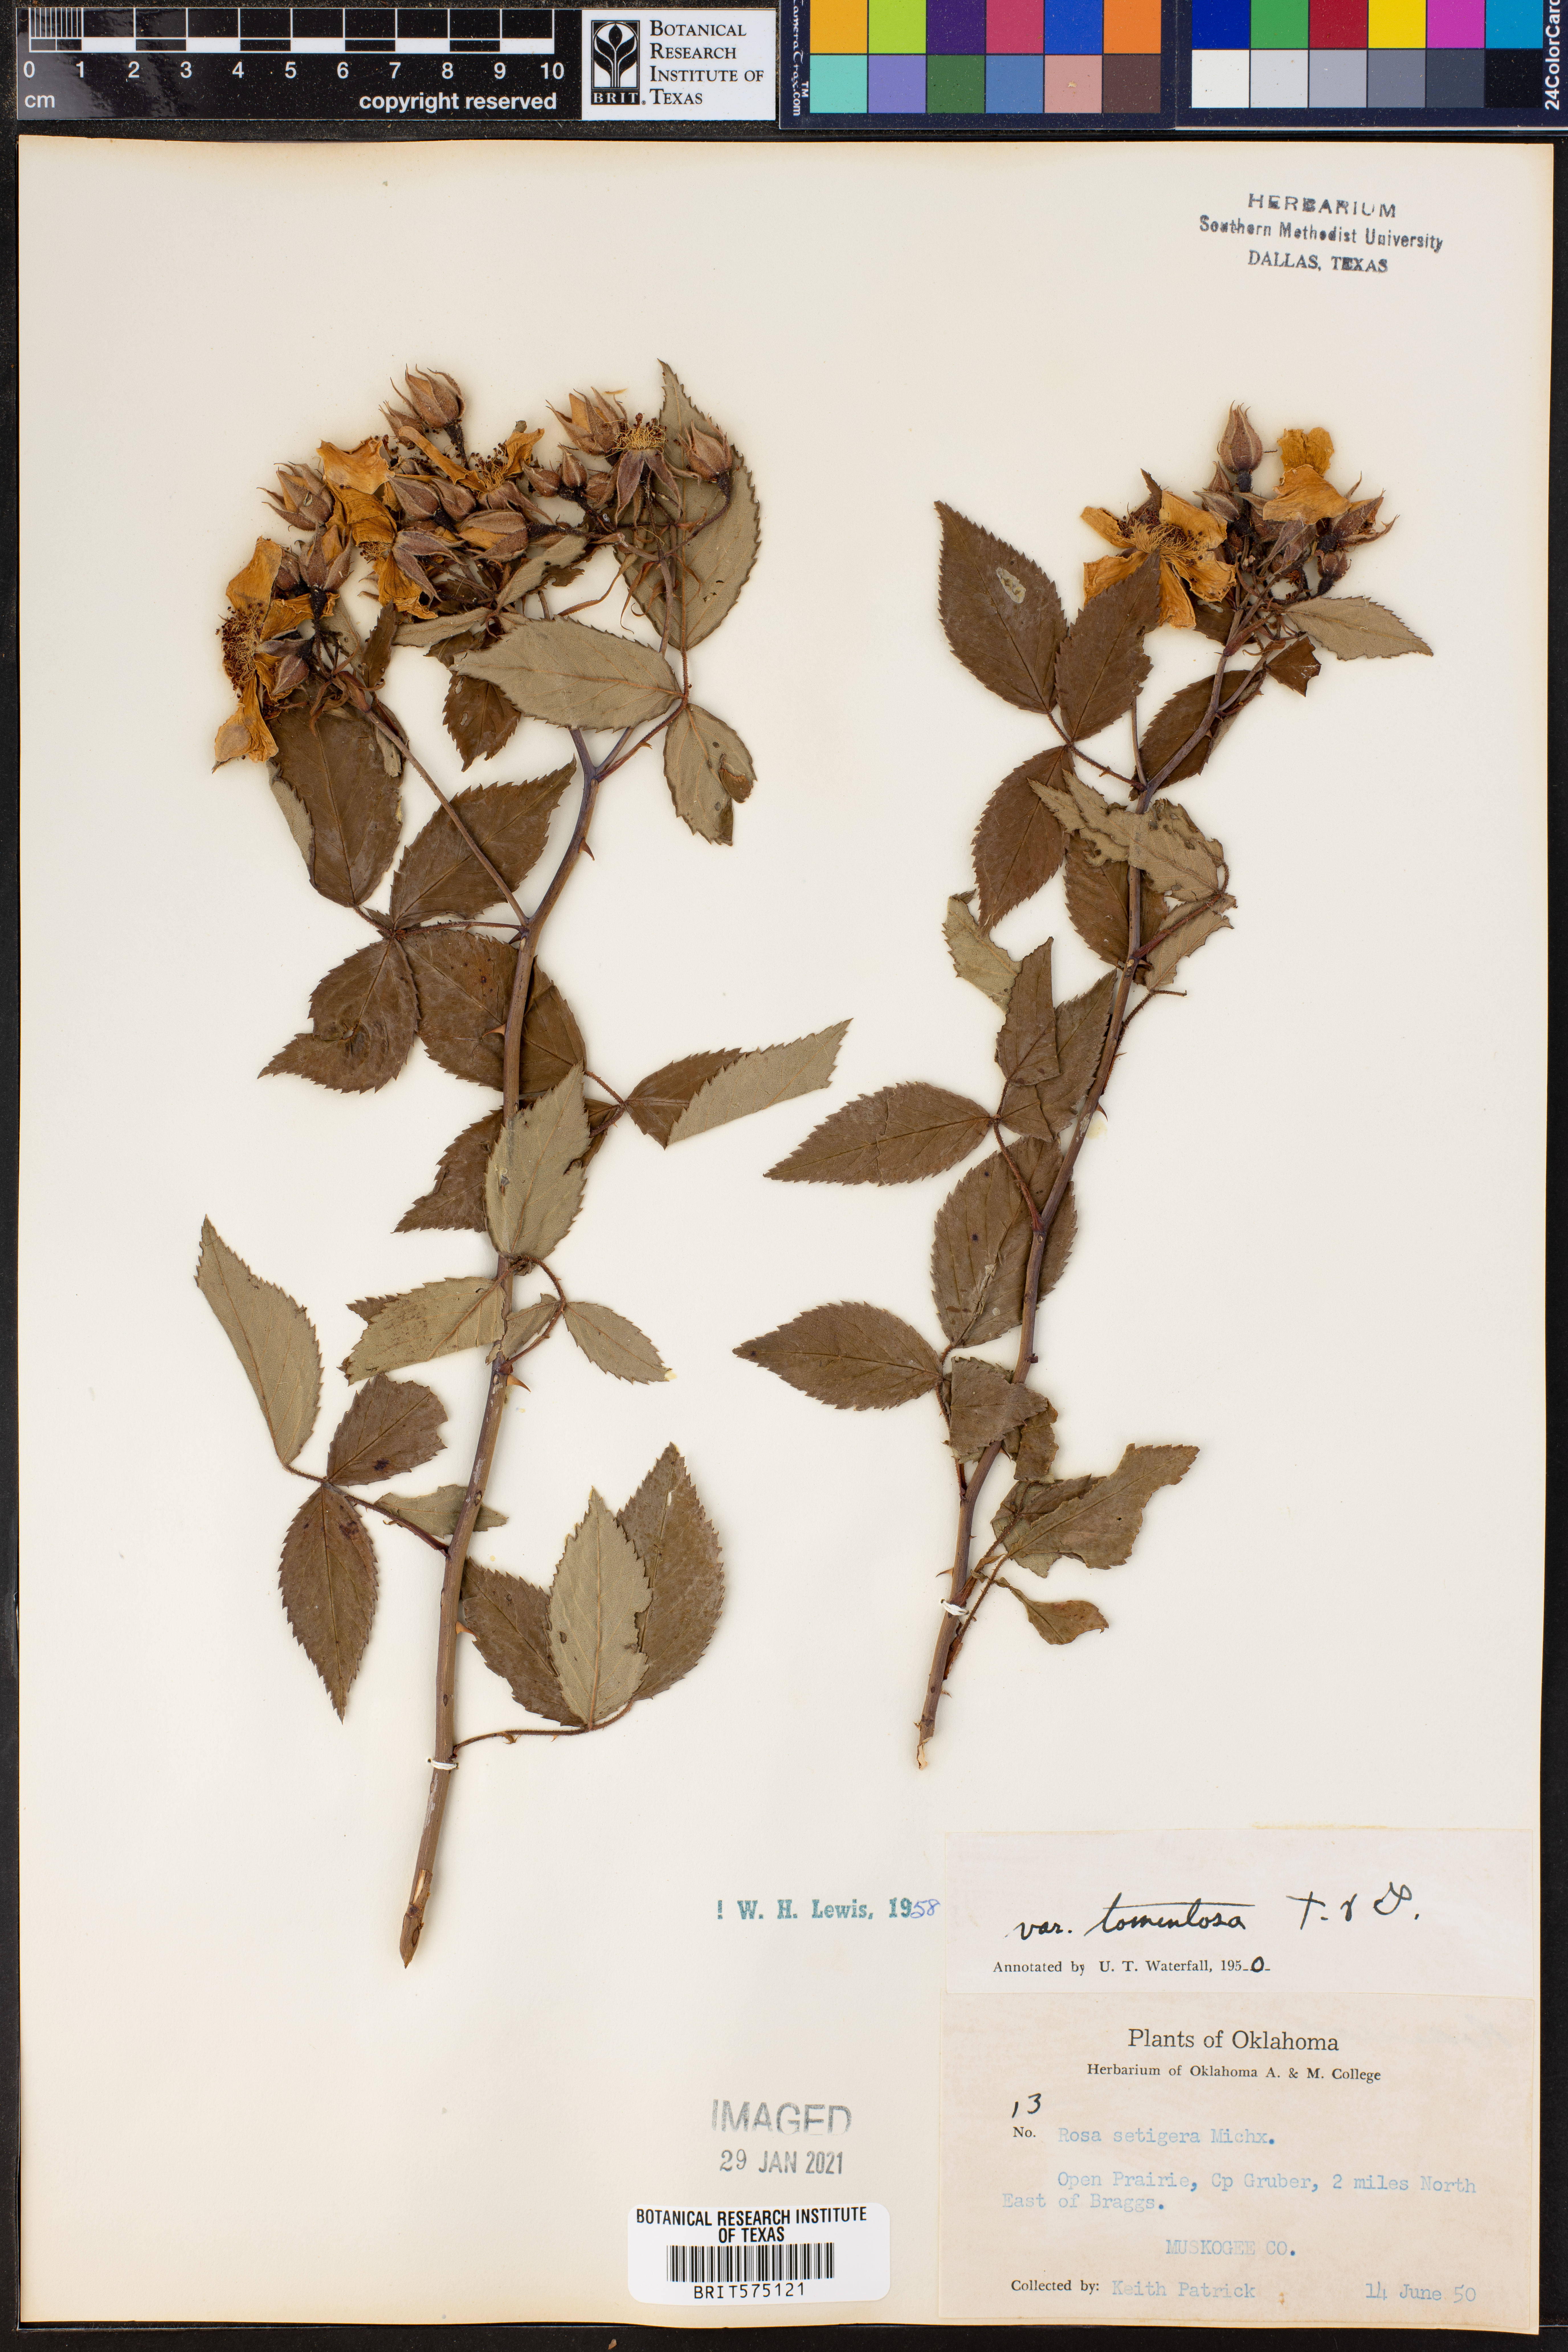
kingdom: Plantae
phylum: Tracheophyta
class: Magnoliopsida
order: Rosales
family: Rosaceae
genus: Rosa
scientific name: Rosa setigera
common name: Prairie rose
